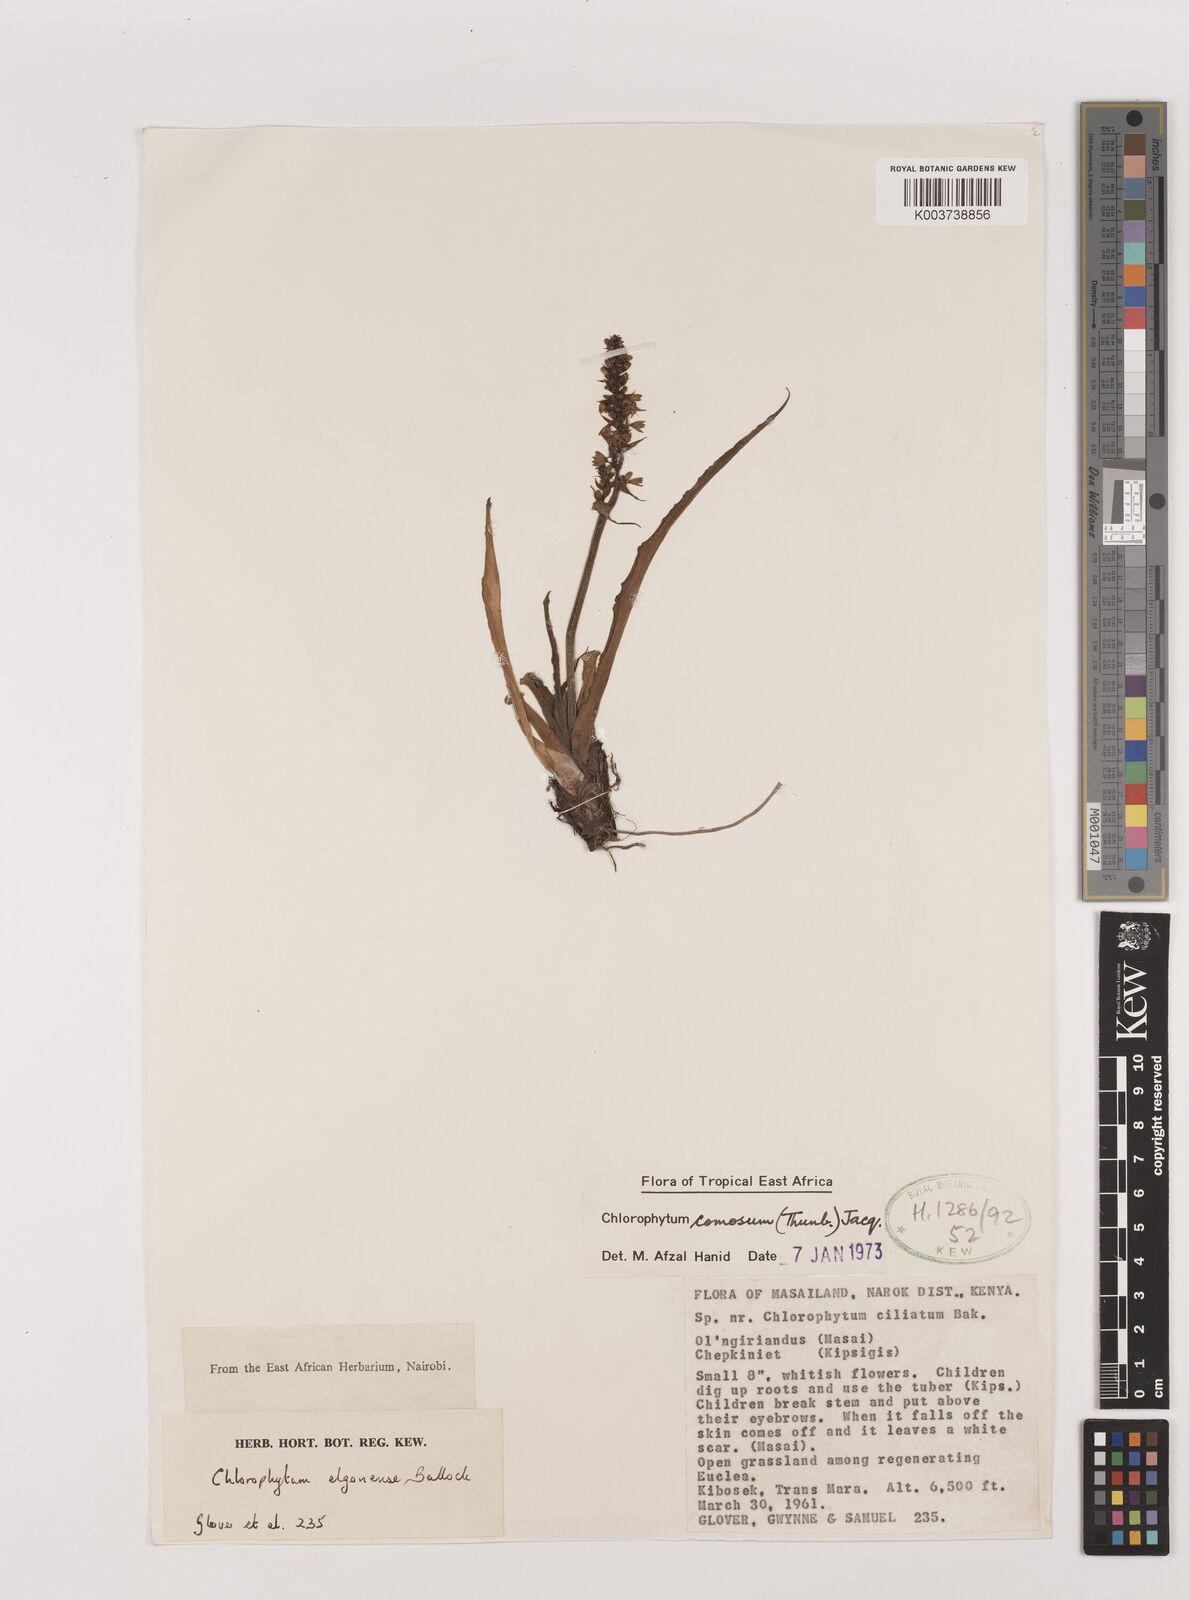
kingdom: Plantae
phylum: Tracheophyta
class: Liliopsida
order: Asparagales
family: Asparagaceae
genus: Chlorophytum
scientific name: Chlorophytum comosum
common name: Spider plant
